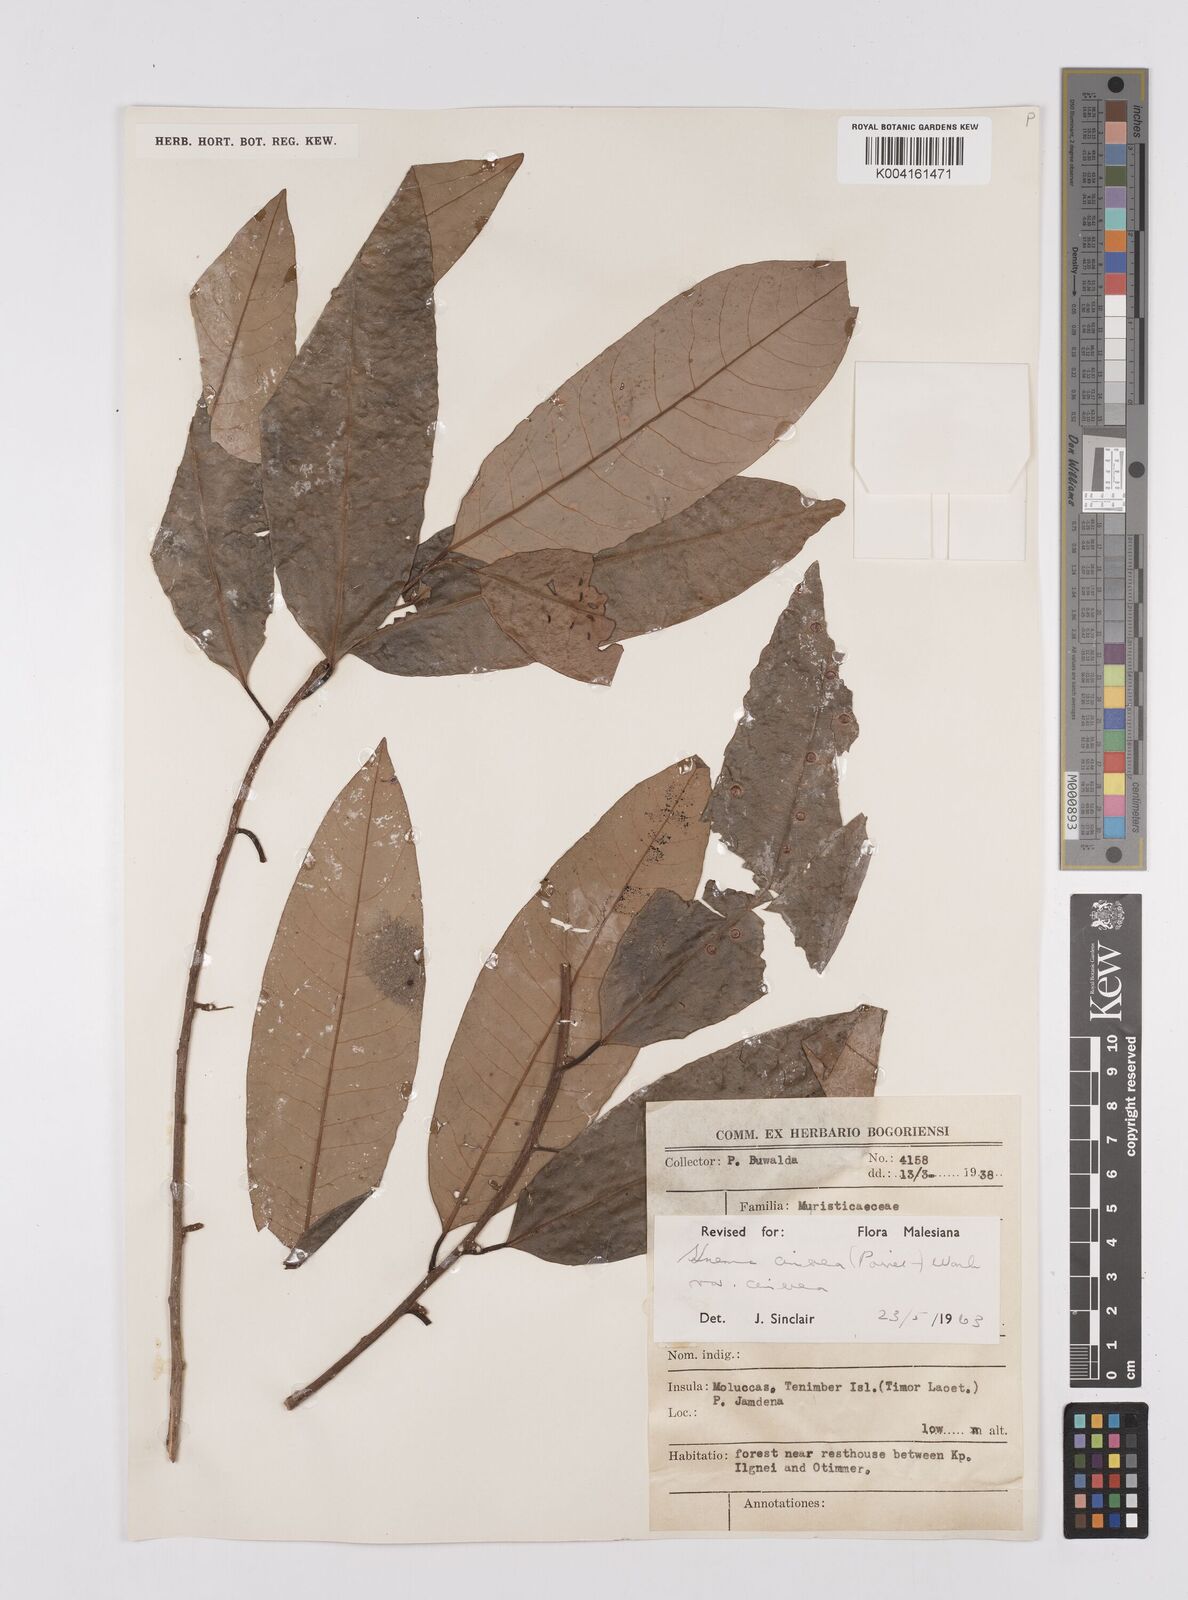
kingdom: Plantae
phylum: Tracheophyta
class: Magnoliopsida
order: Magnoliales
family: Myristicaceae
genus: Knema
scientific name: Knema cinerea
